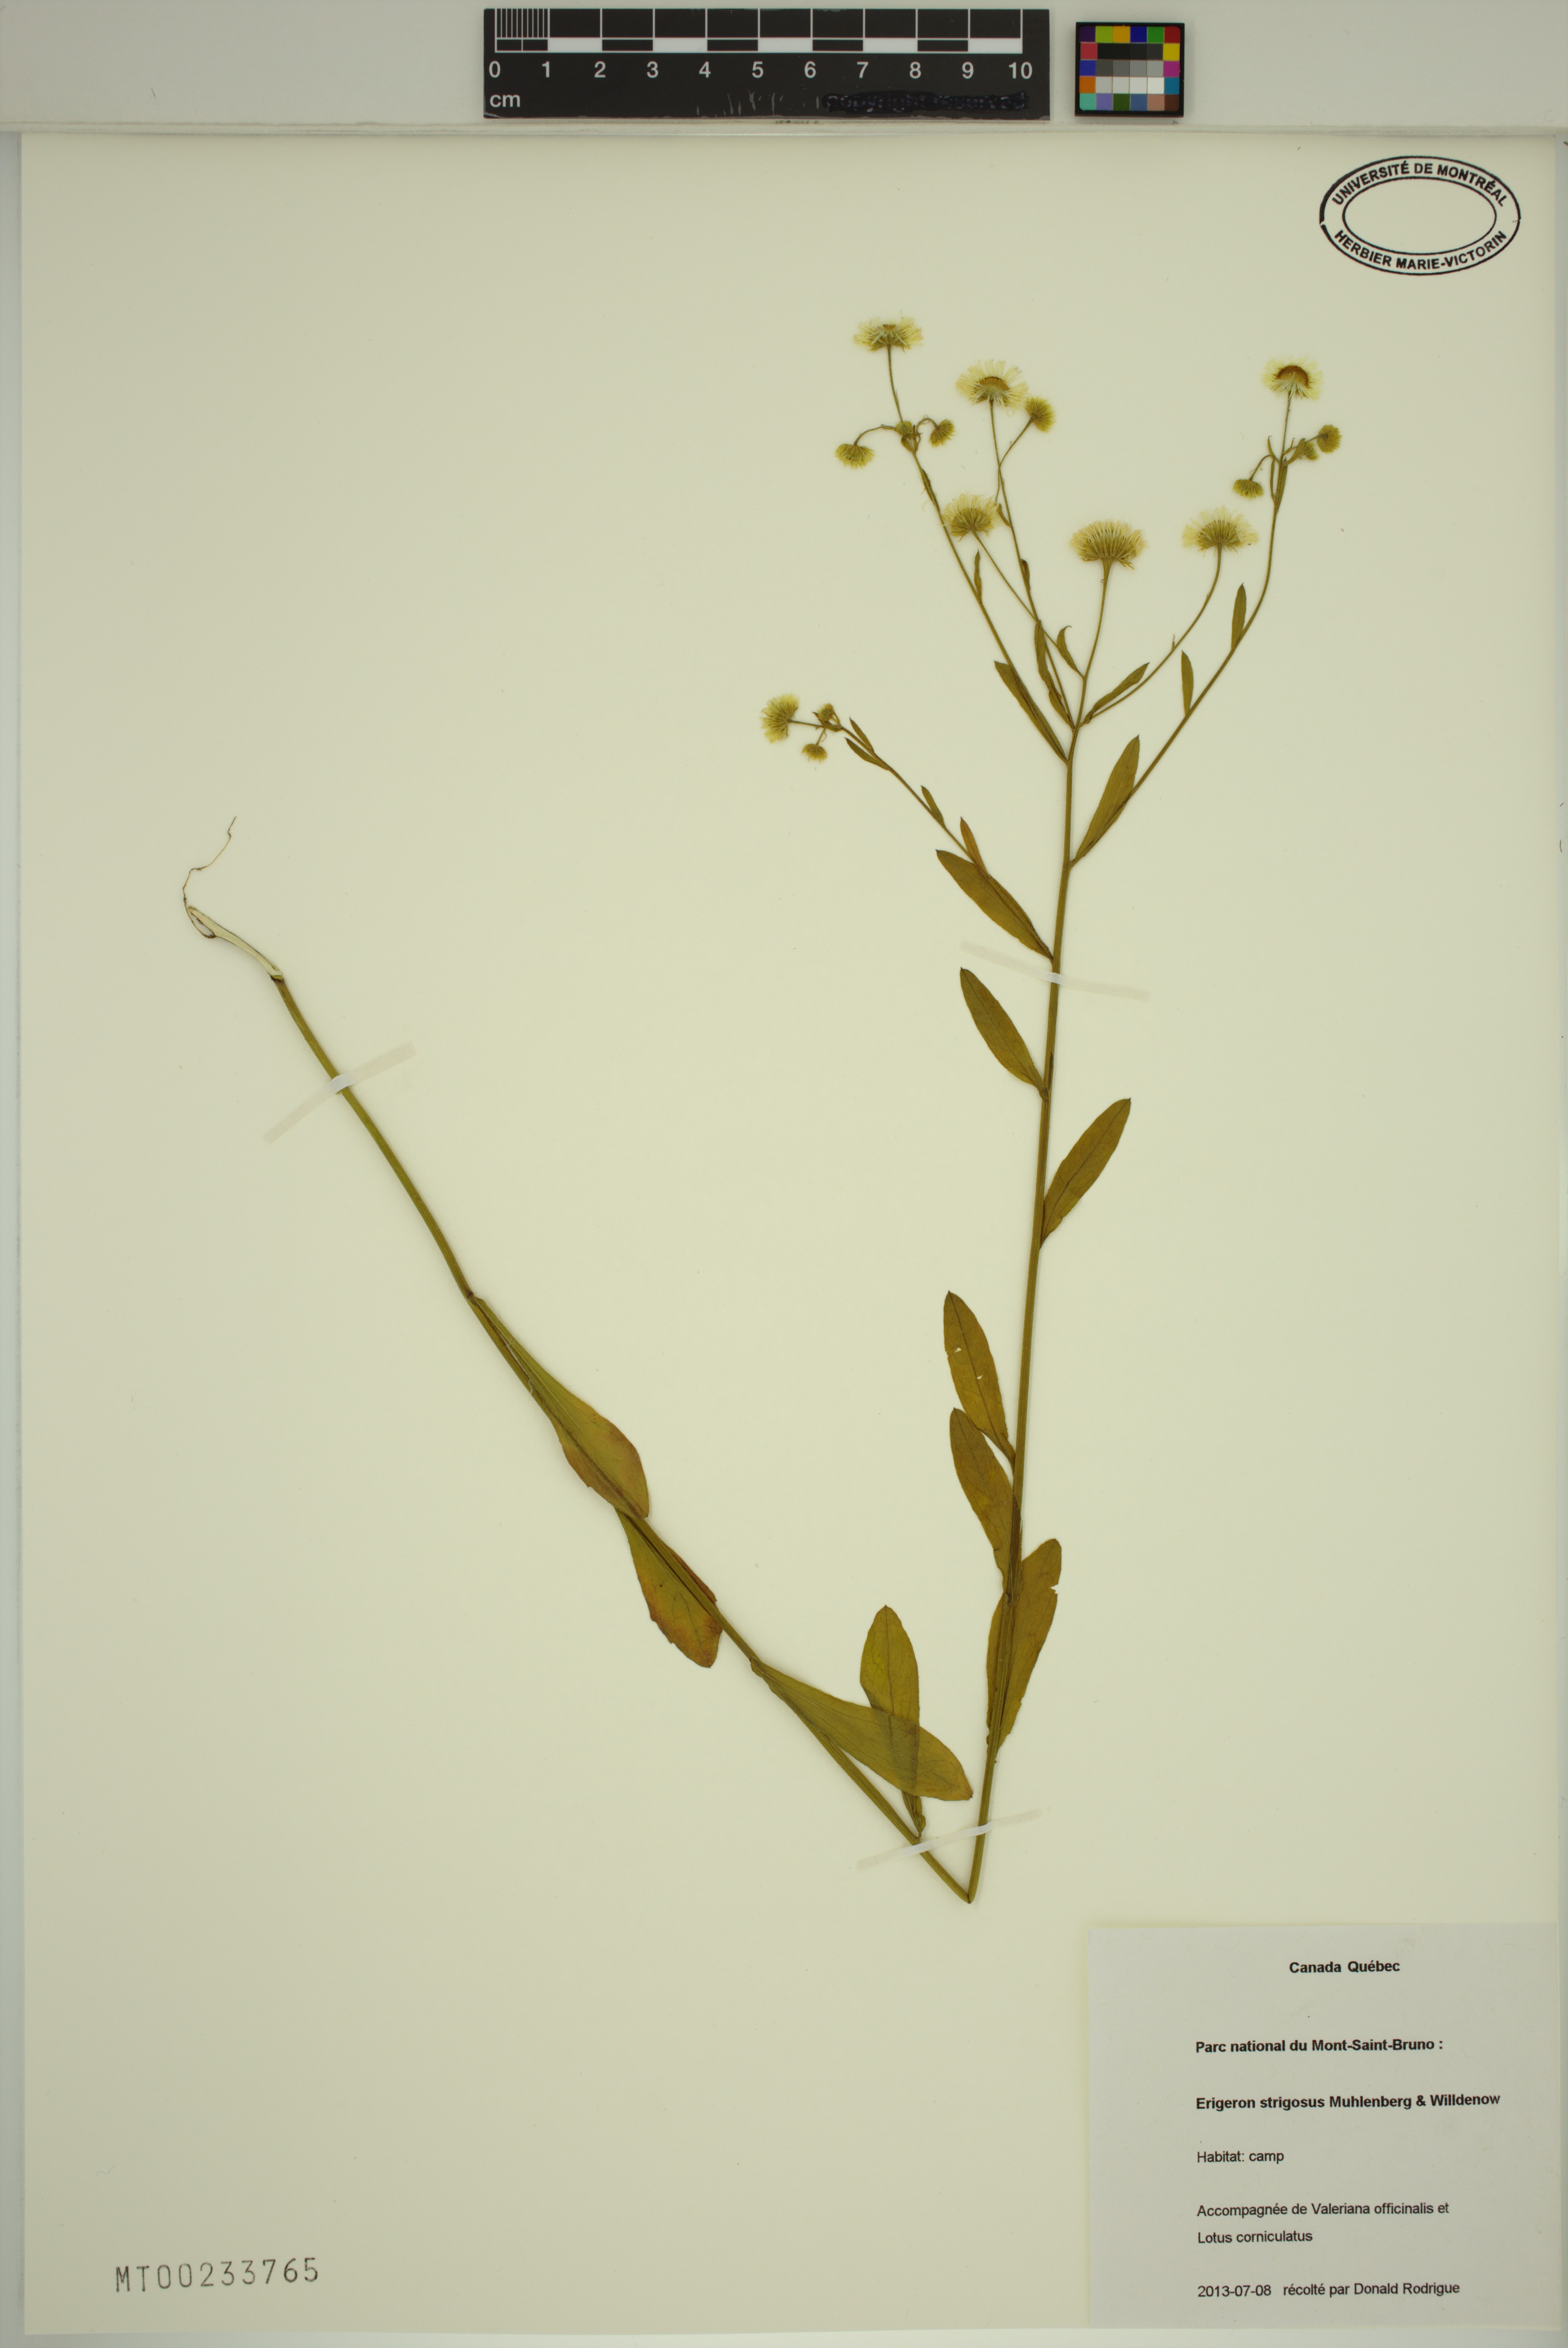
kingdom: Plantae
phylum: Tracheophyta
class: Magnoliopsida
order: Asterales
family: Asteraceae
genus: Erigeron
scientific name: Erigeron annuus
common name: Tall fleabane
